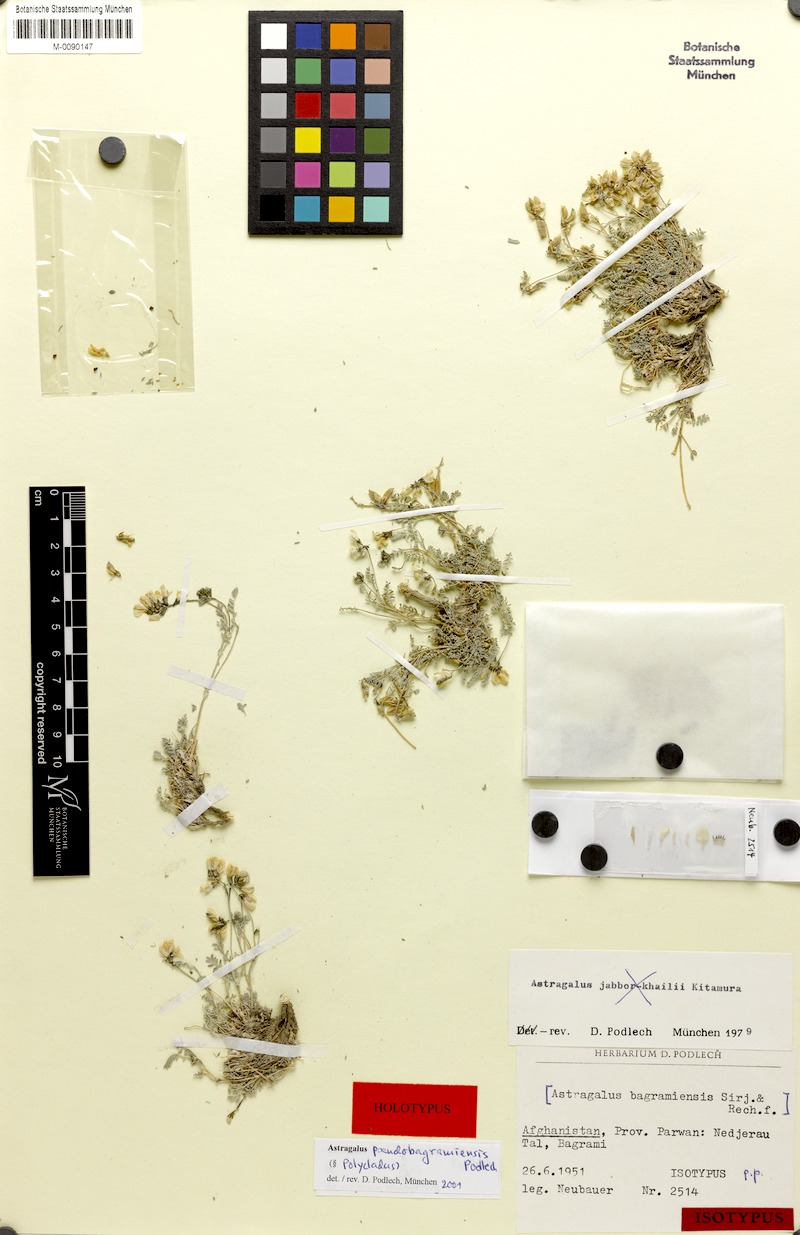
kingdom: Plantae
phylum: Tracheophyta
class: Magnoliopsida
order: Fabales
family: Fabaceae
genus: Astragalus
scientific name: Astragalus pseudobagramiensis
